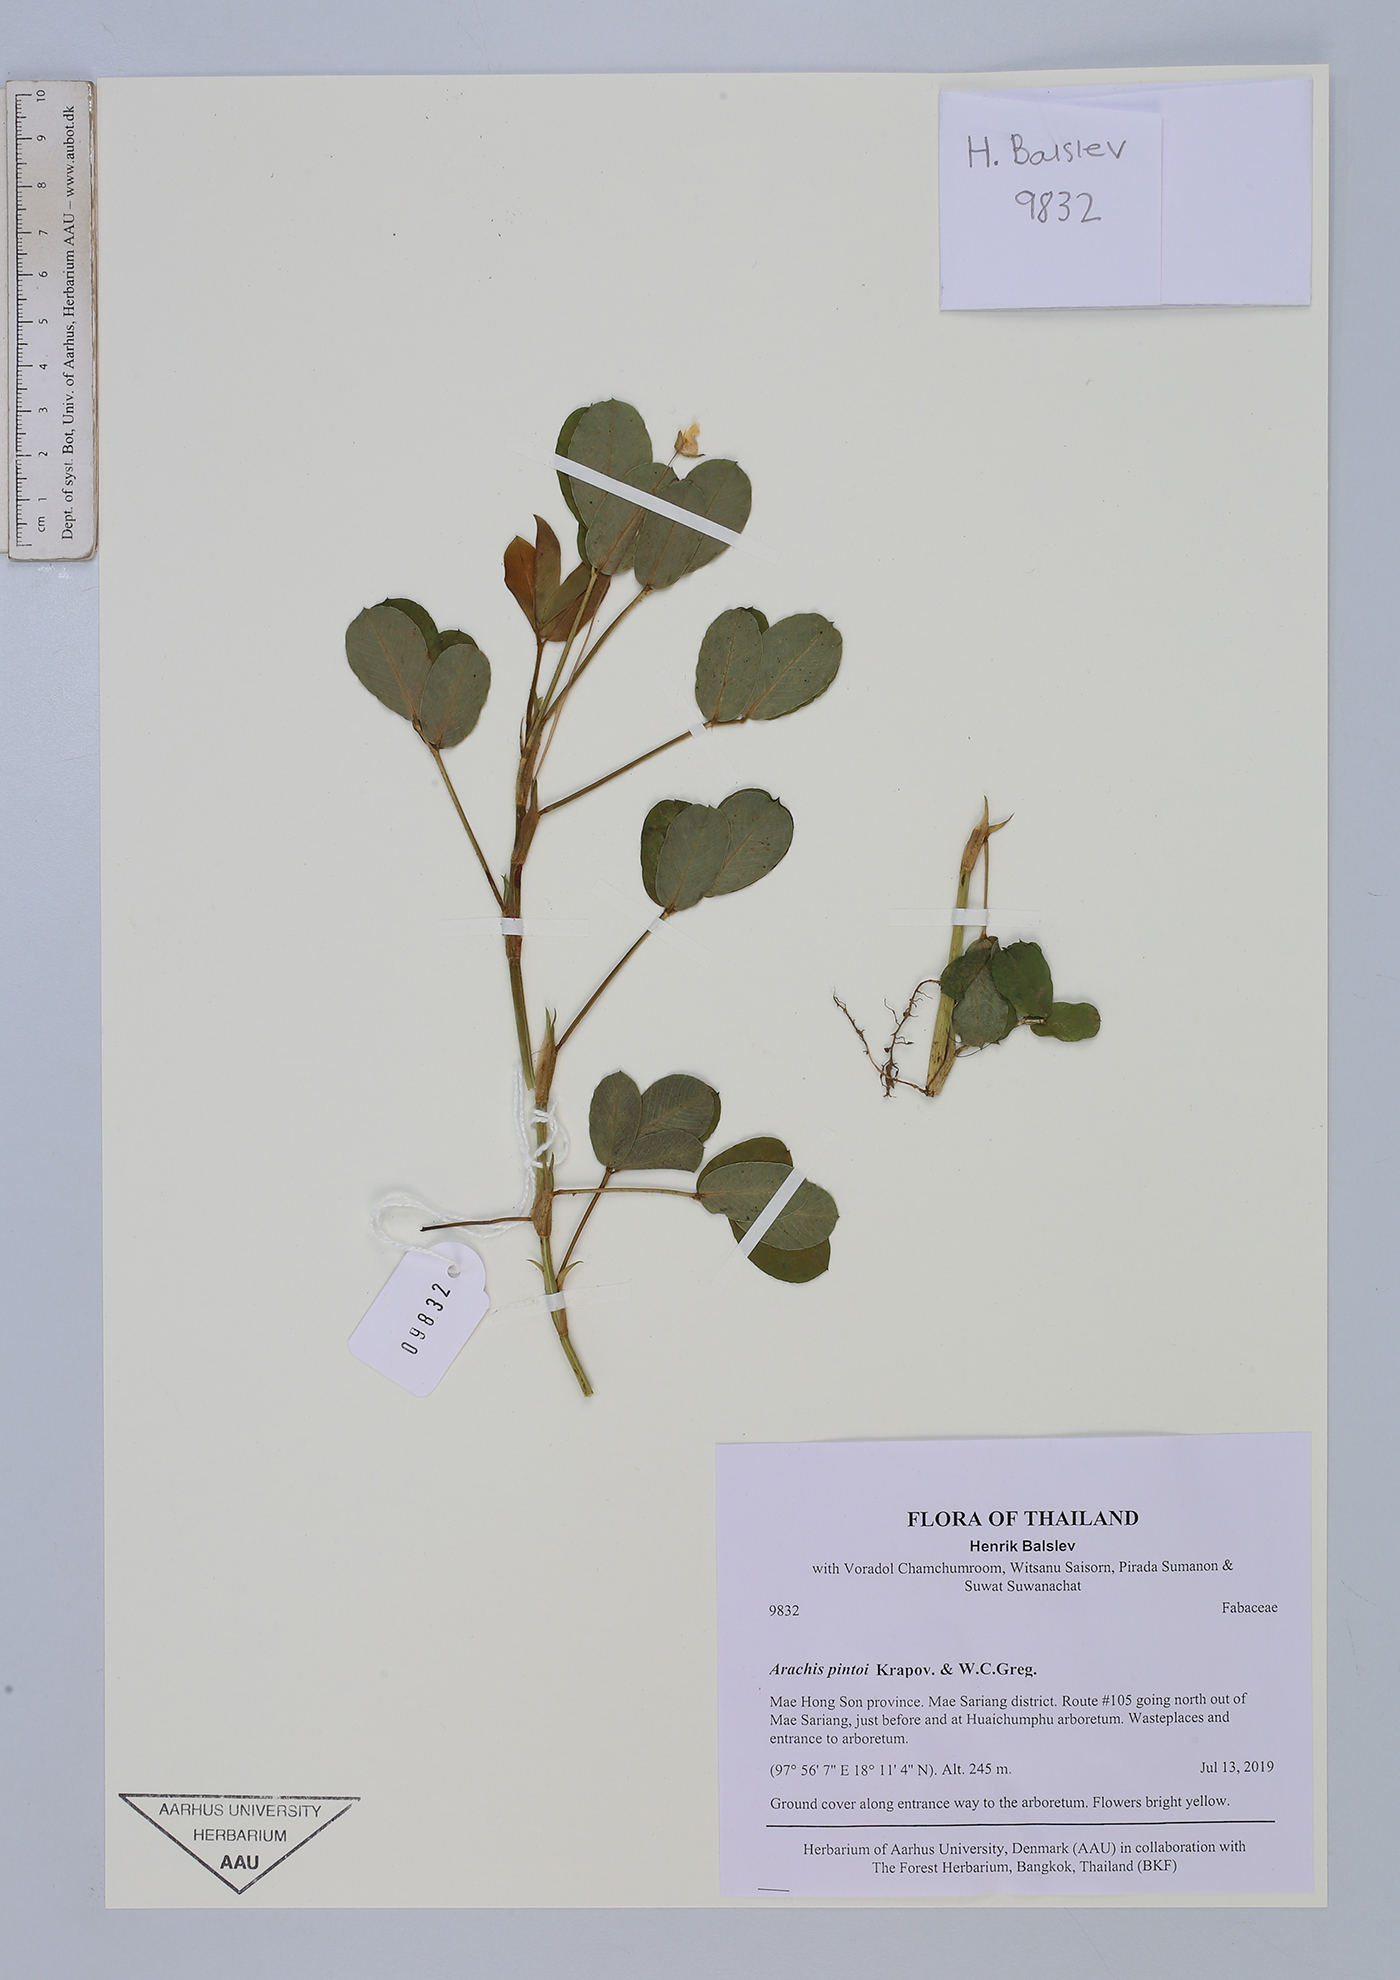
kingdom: Plantae
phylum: Tracheophyta
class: Magnoliopsida
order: Fabales
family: Fabaceae
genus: Arachis
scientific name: Arachis pintoi
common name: Pinto peanut
